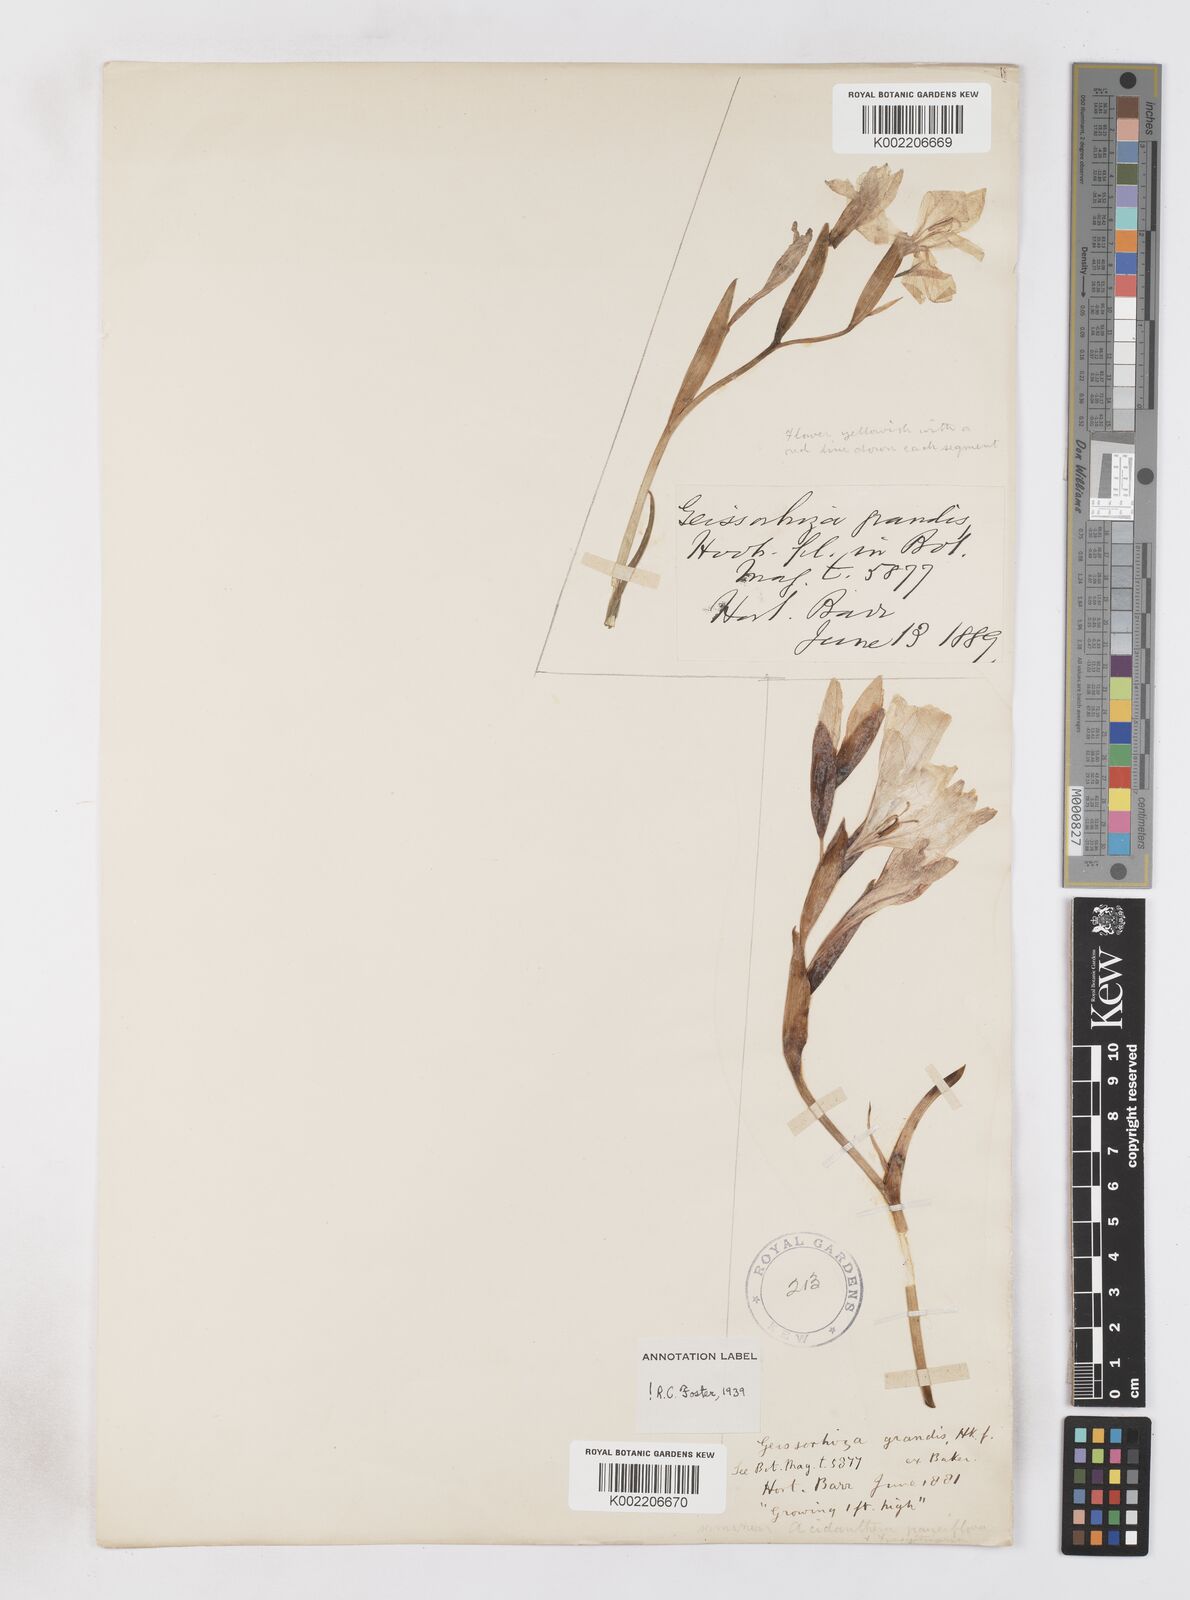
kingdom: Plantae
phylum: Tracheophyta
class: Liliopsida
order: Asparagales
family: Iridaceae
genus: Gladiolus
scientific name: Gladiolus floribundus
